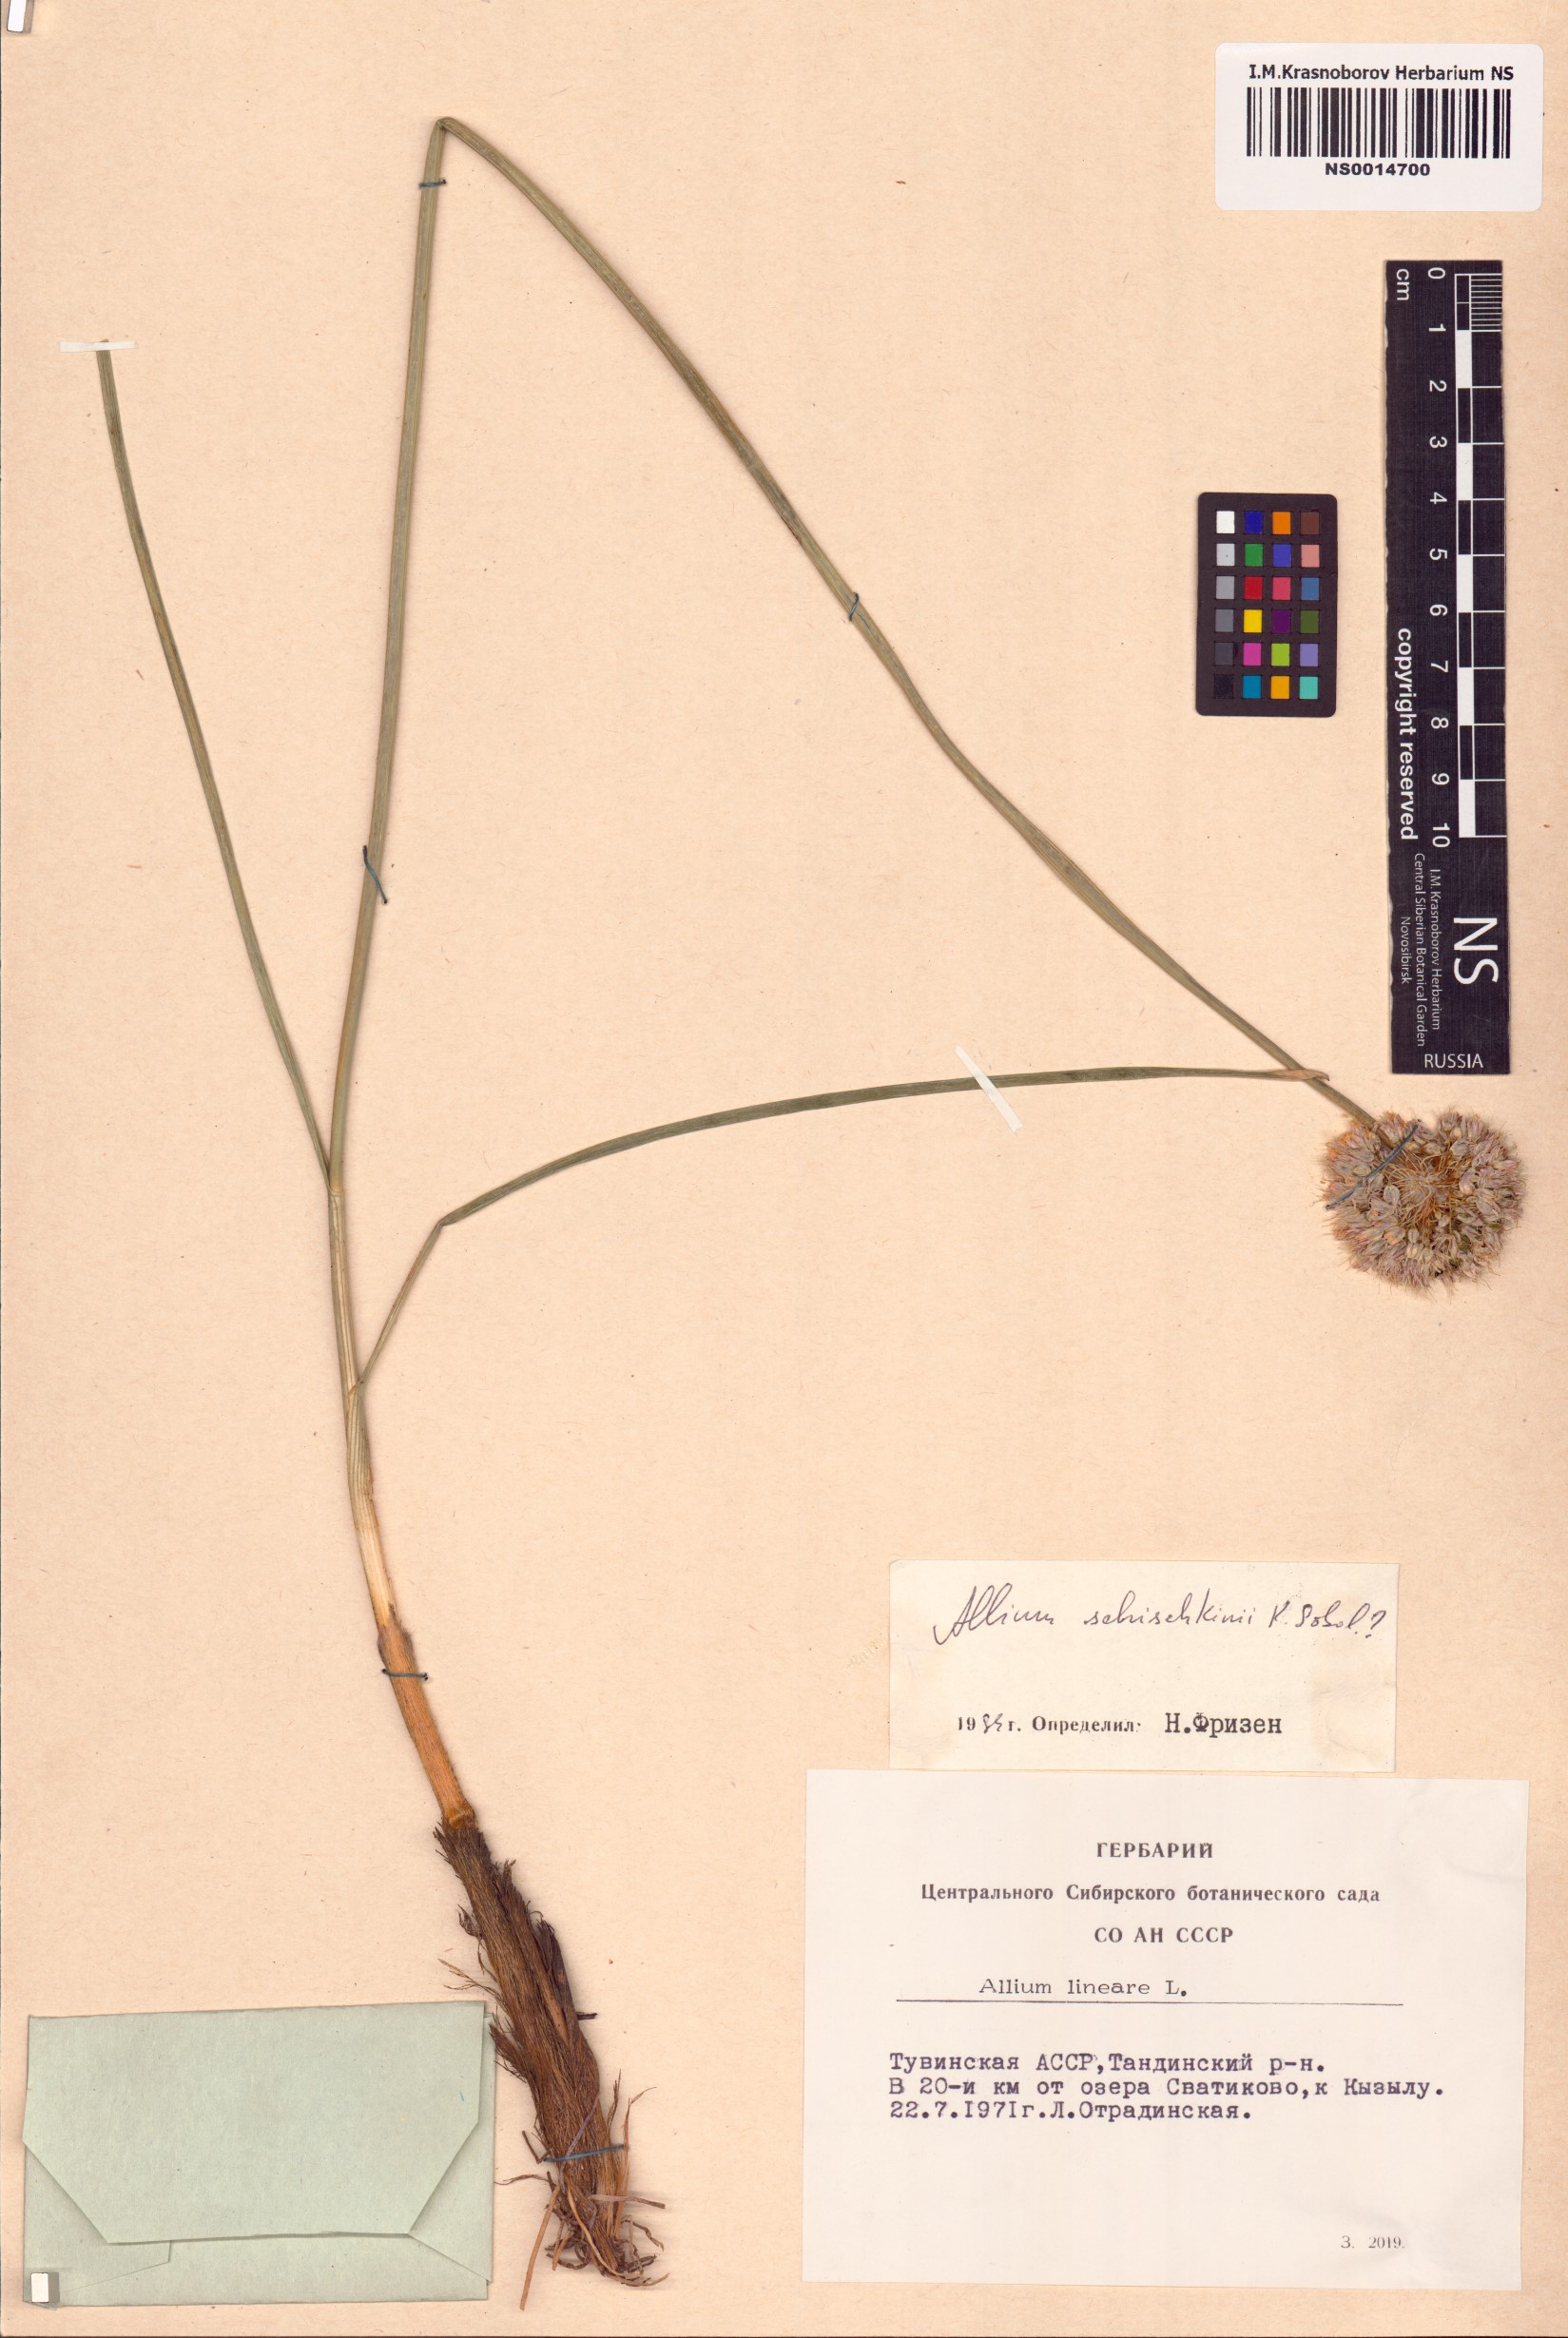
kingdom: Plantae
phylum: Tracheophyta
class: Liliopsida
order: Asparagales
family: Amaryllidaceae
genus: Allium
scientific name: Allium schischkinii
